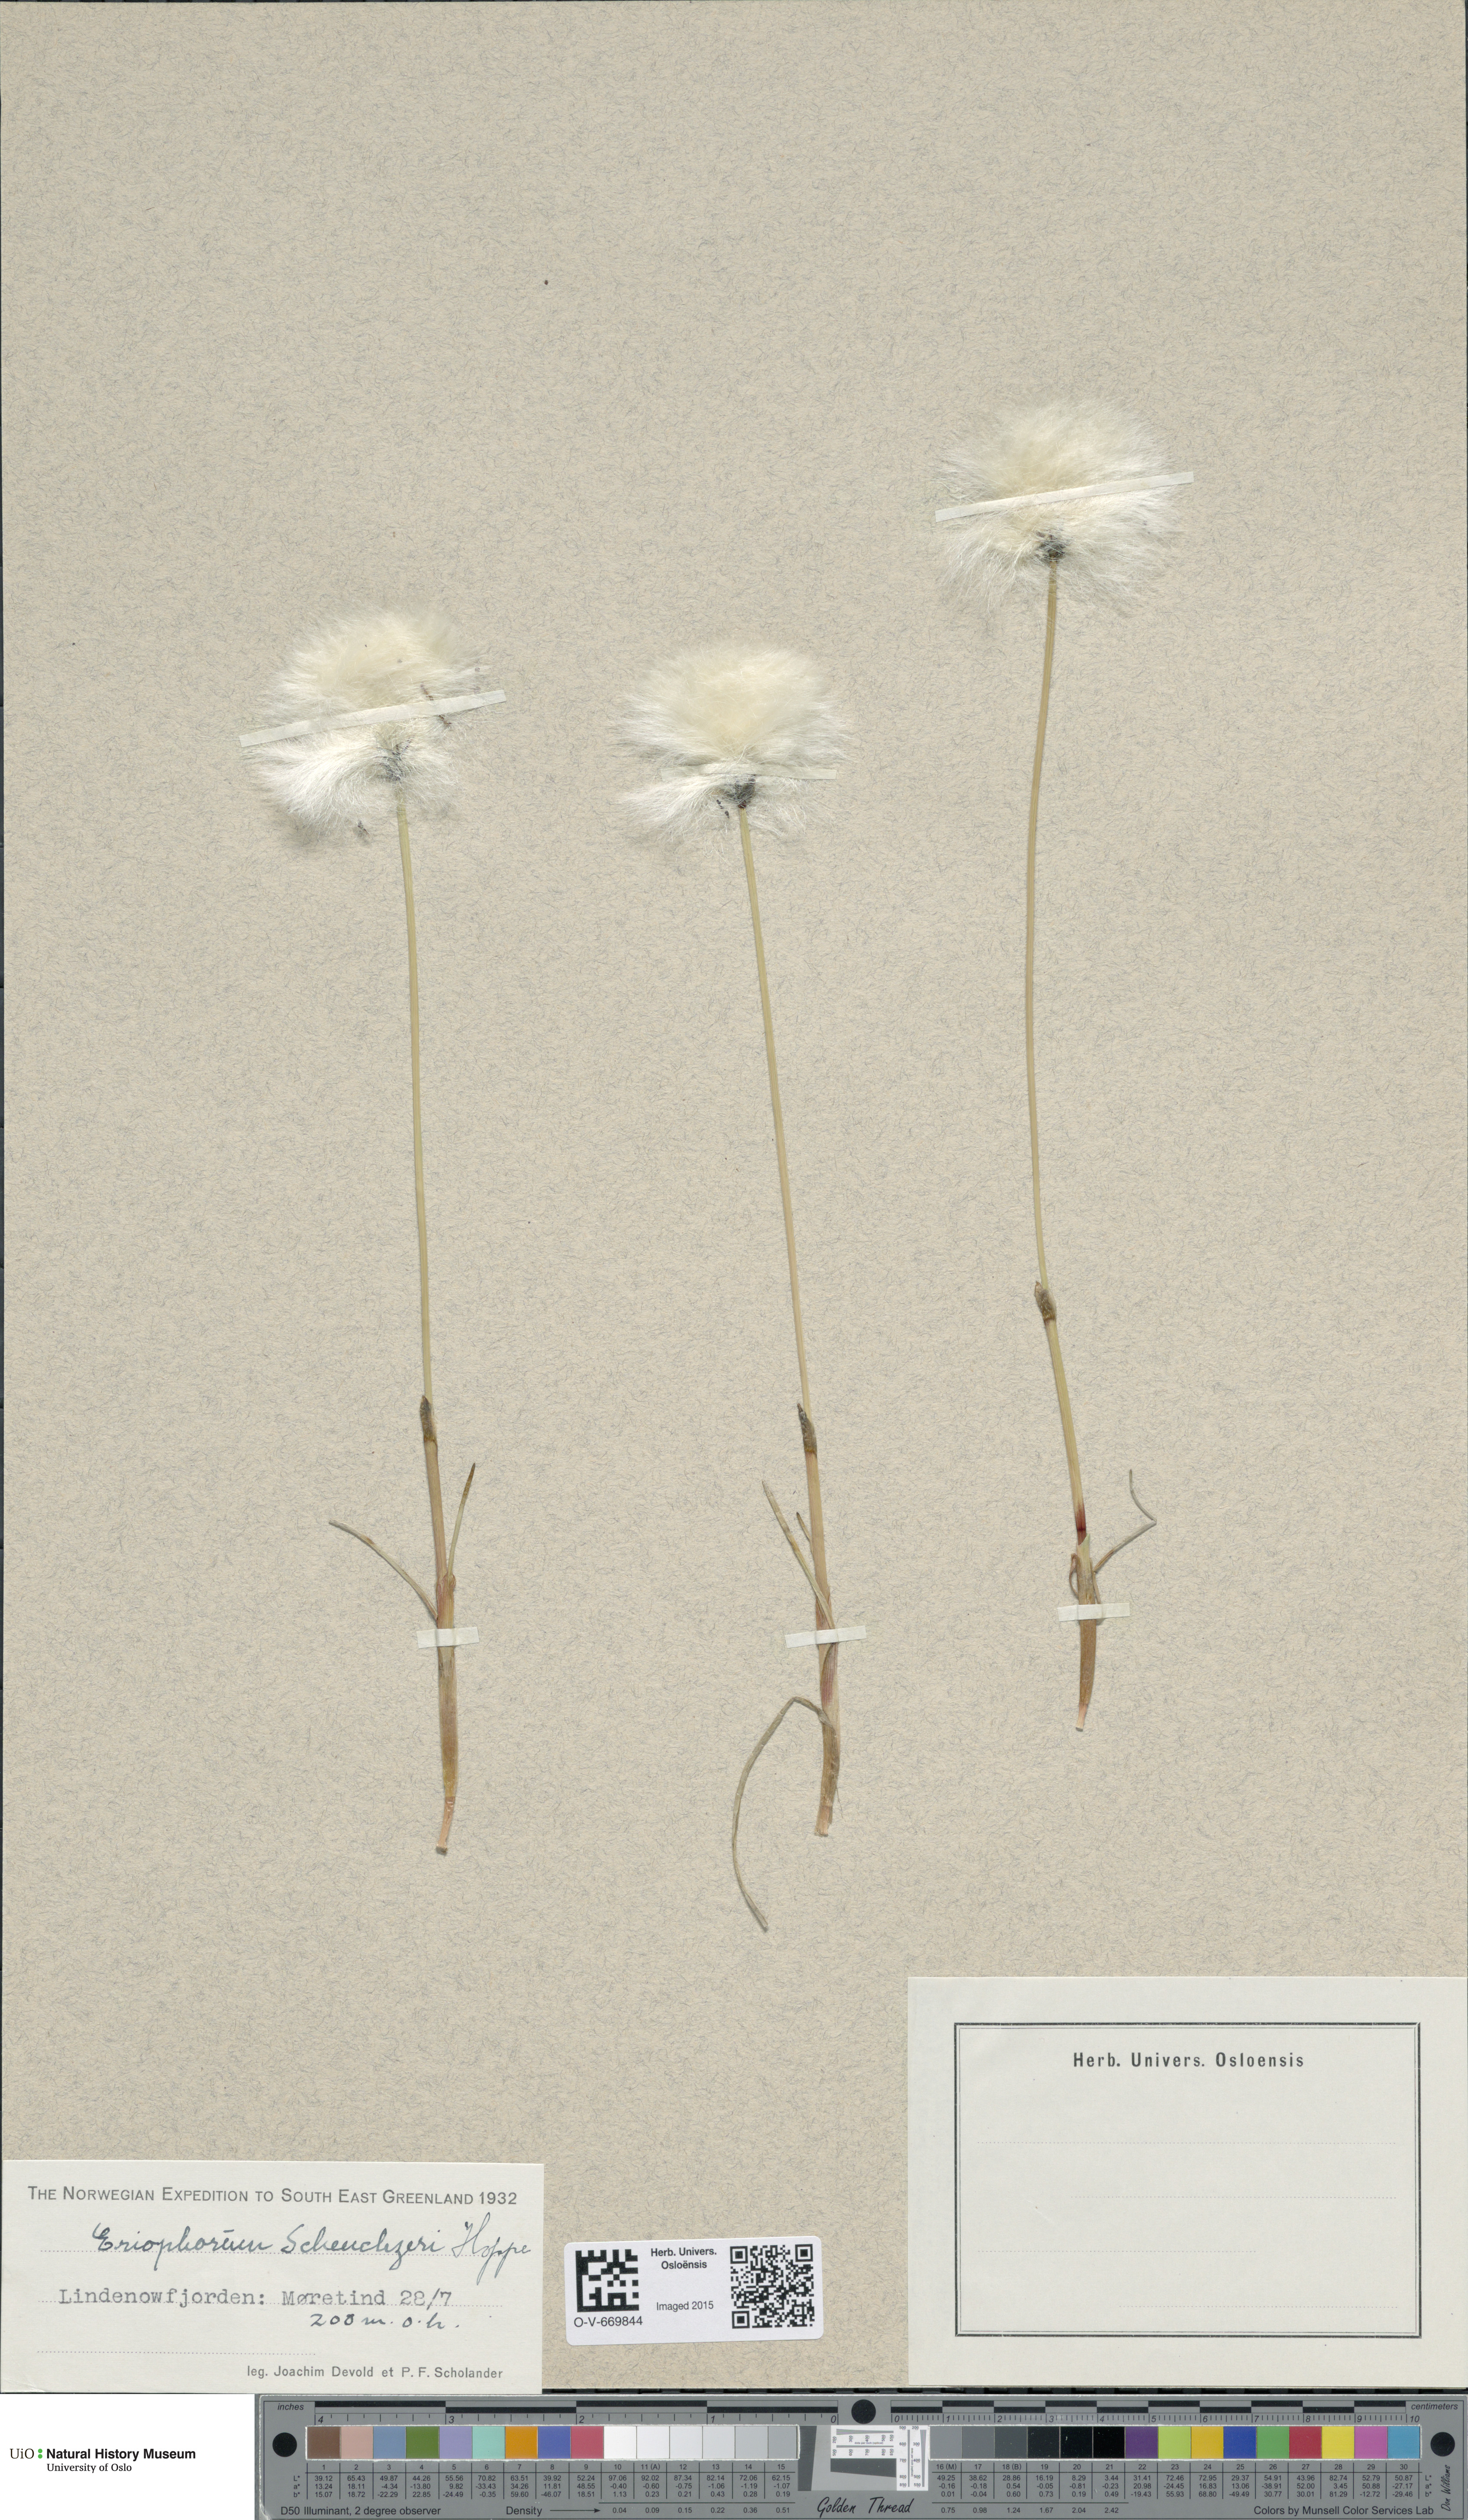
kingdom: Plantae
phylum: Tracheophyta
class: Liliopsida
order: Poales
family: Cyperaceae
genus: Eriophorum
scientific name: Eriophorum scheuchzeri
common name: Scheuchzer's cottongrass
